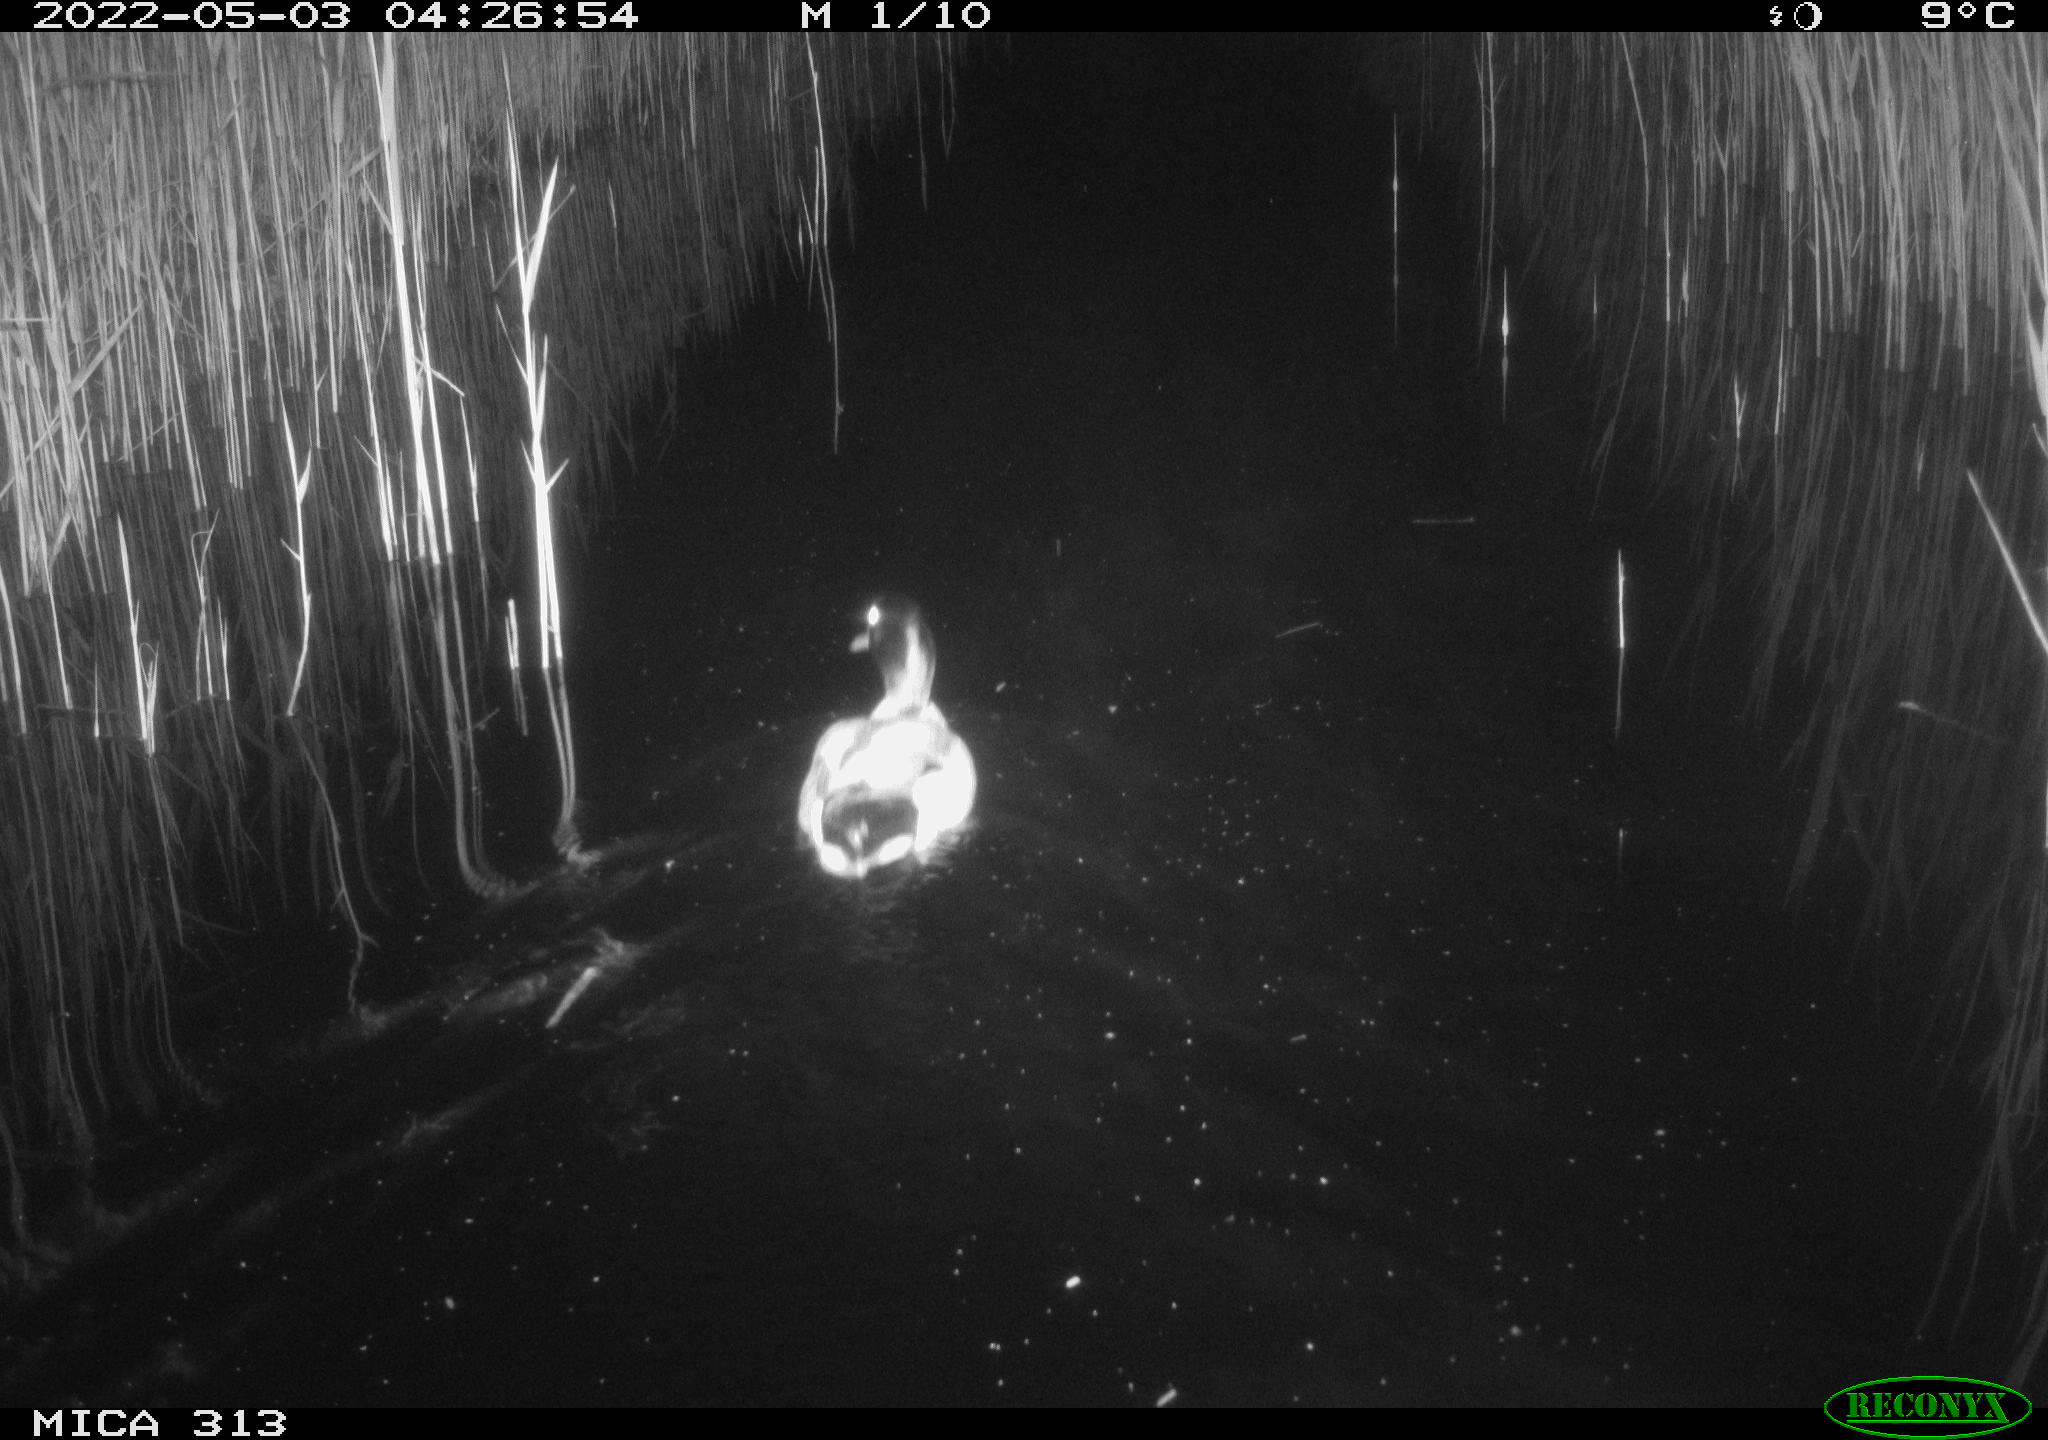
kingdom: Animalia
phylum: Chordata
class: Aves
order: Anseriformes
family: Anatidae
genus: Anas
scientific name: Anas platyrhynchos
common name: Mallard
